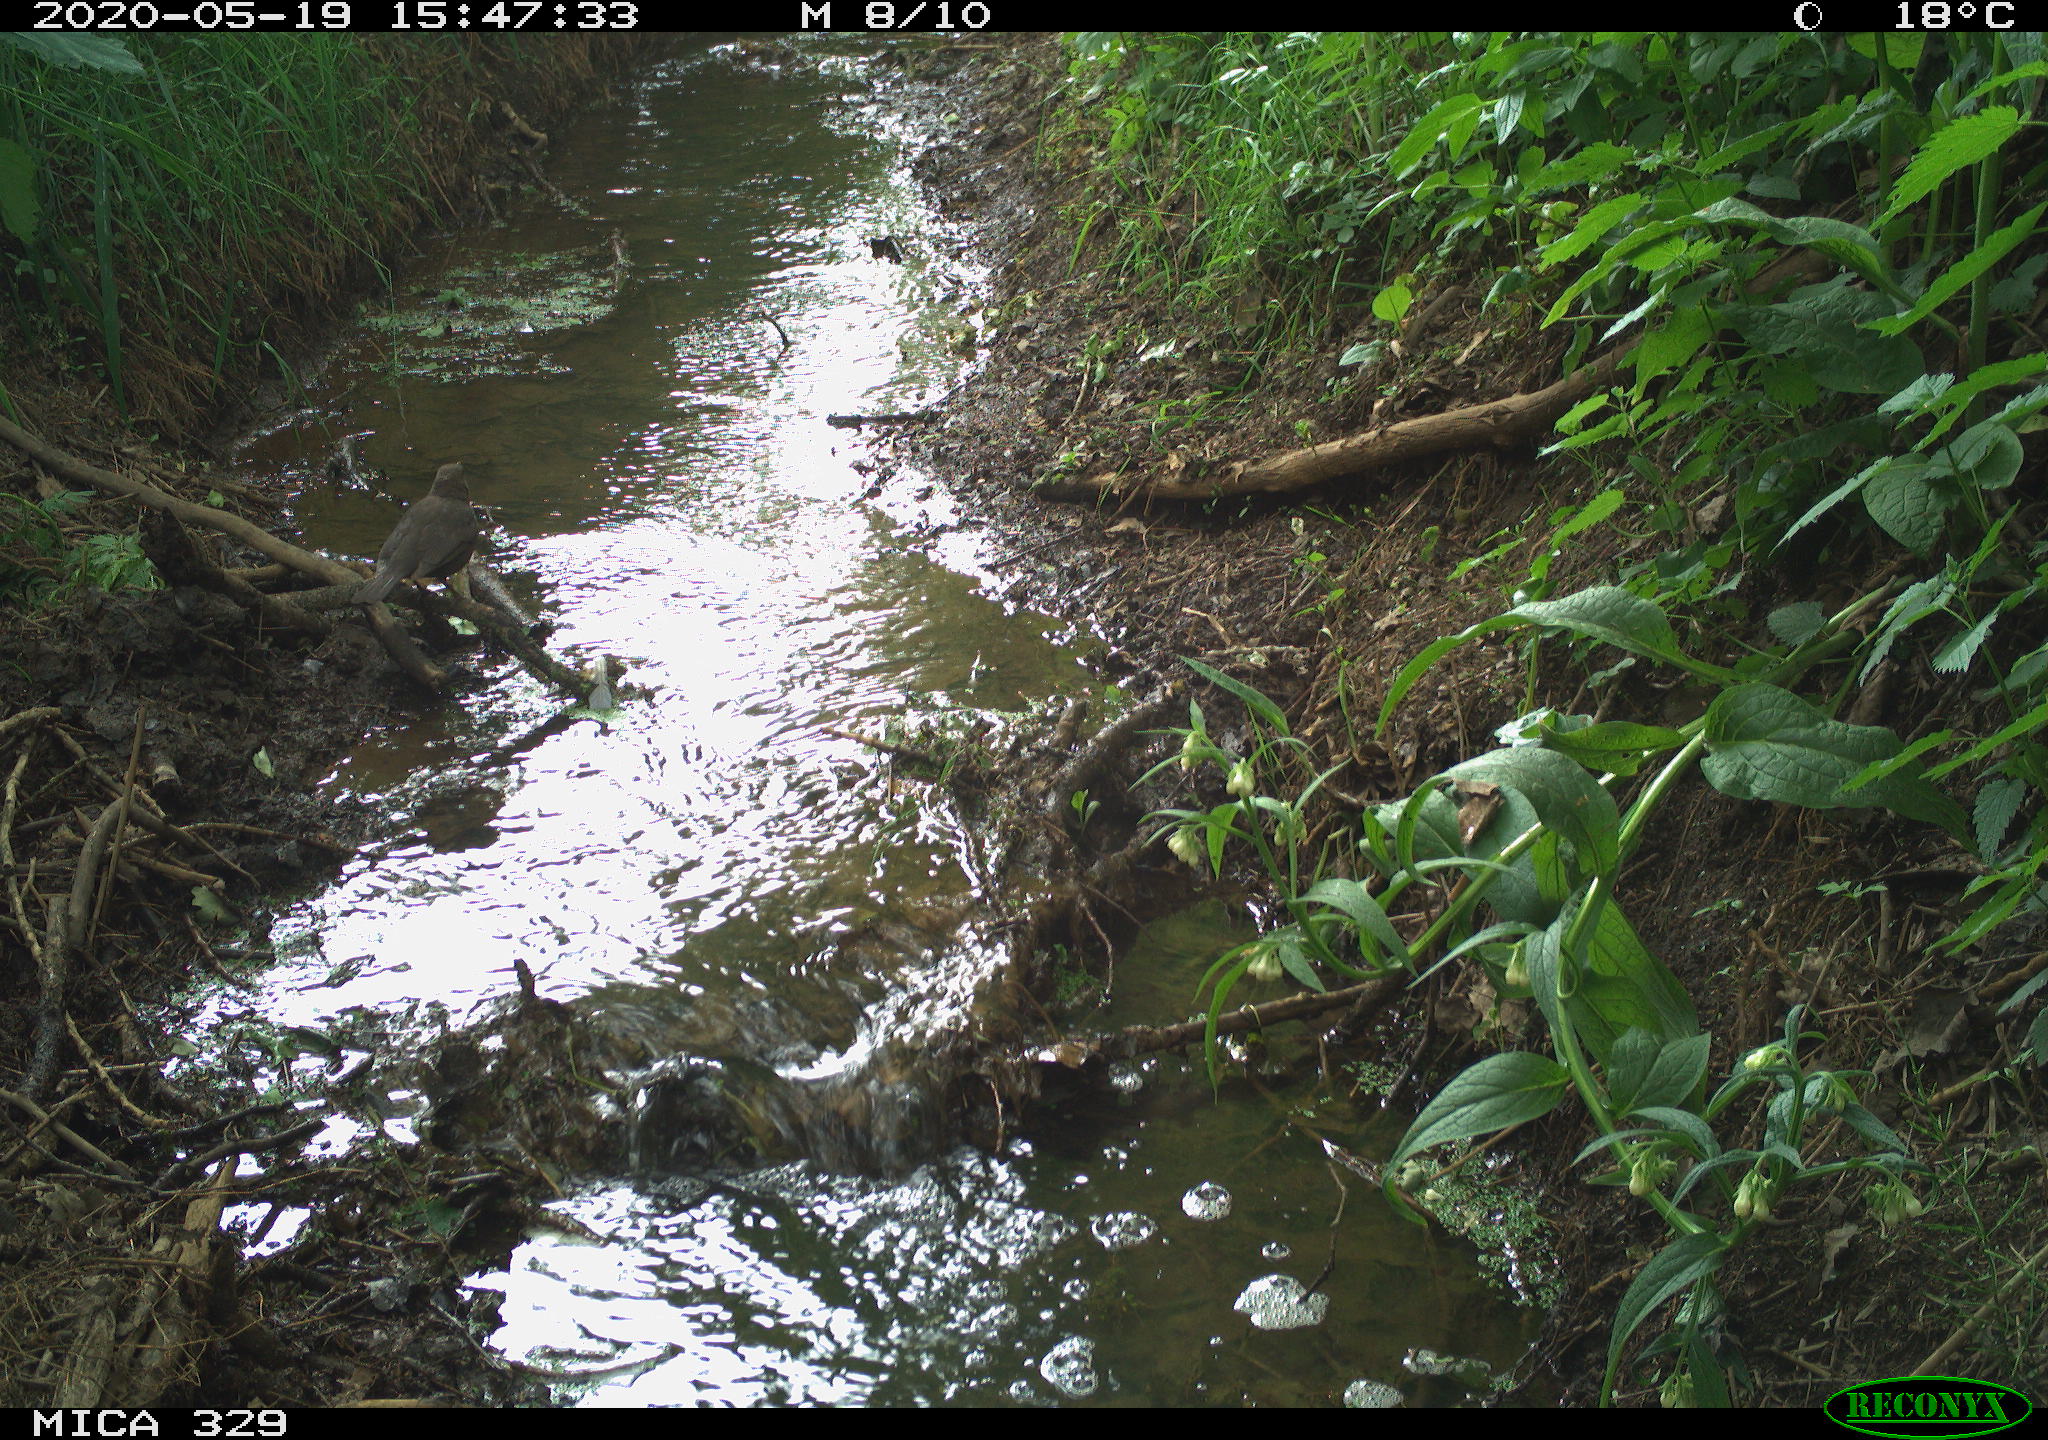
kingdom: Animalia
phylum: Chordata
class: Aves
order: Passeriformes
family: Turdidae
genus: Turdus
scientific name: Turdus merula
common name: Common blackbird
